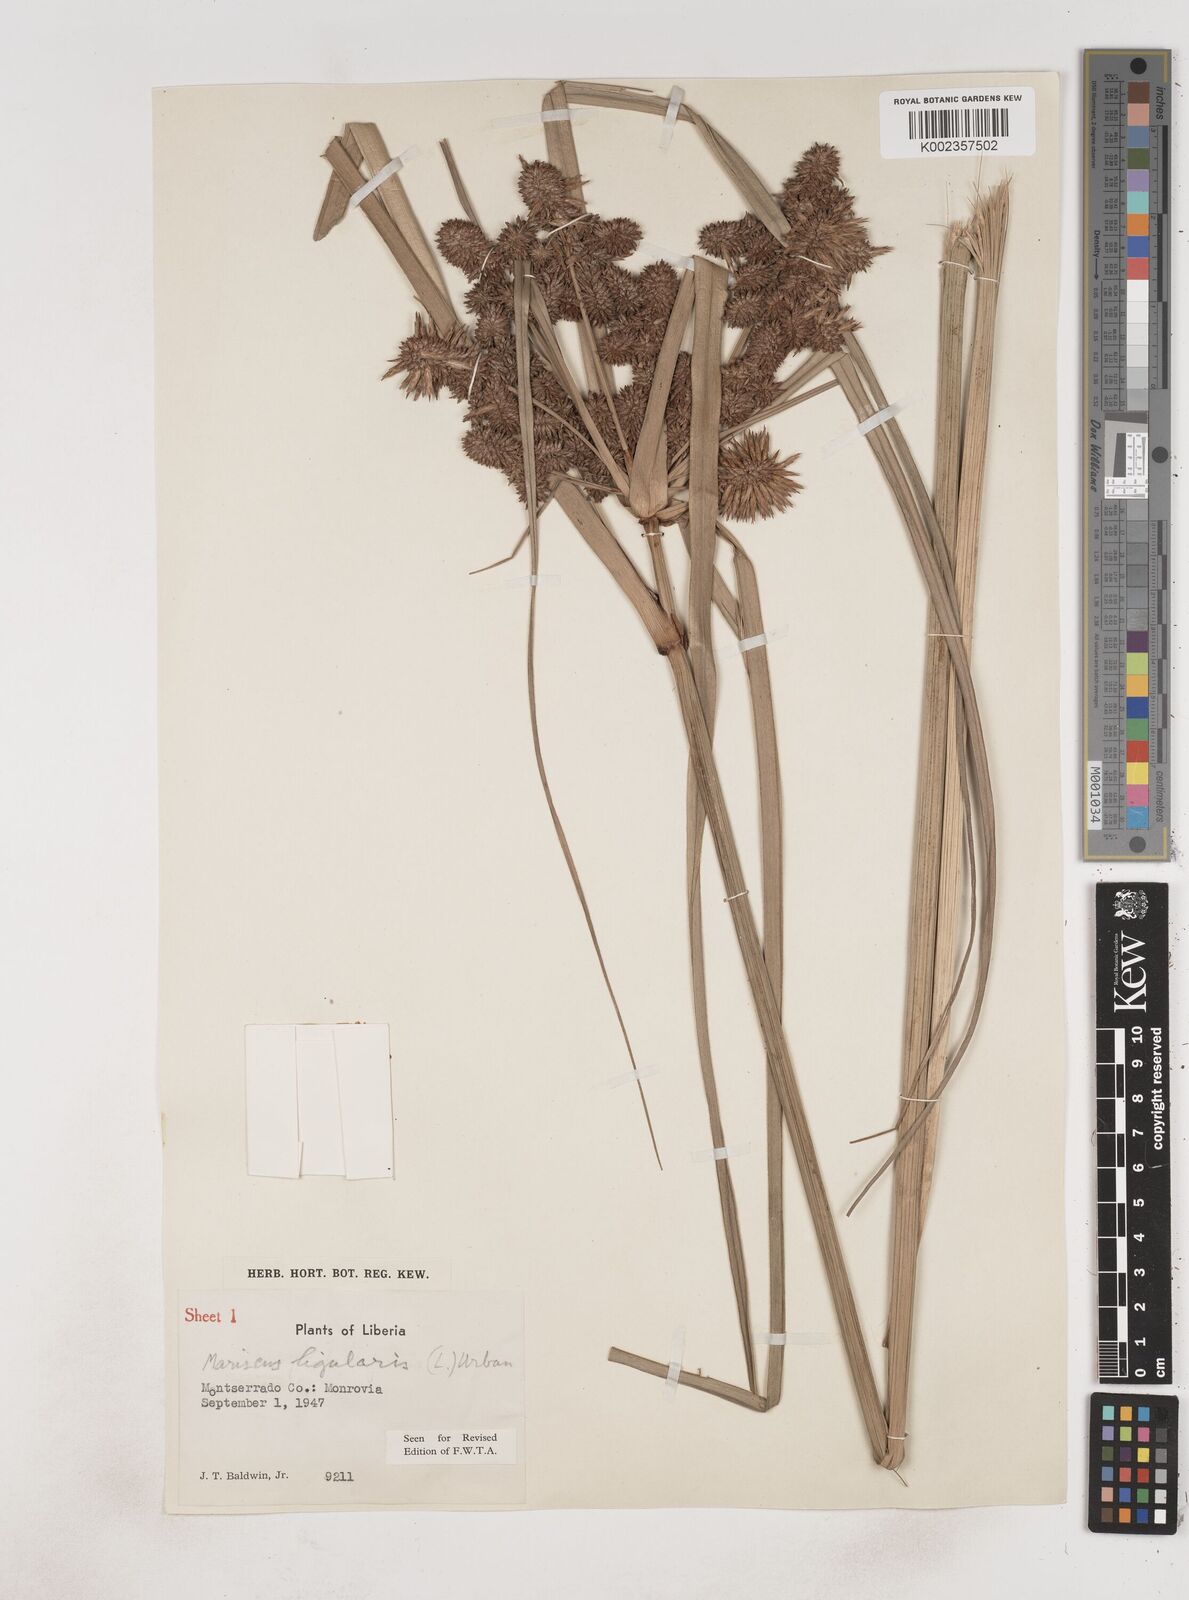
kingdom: Plantae
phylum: Tracheophyta
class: Liliopsida
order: Poales
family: Cyperaceae
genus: Cyperus
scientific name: Cyperus ligularis
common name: Swamp flat sedge
